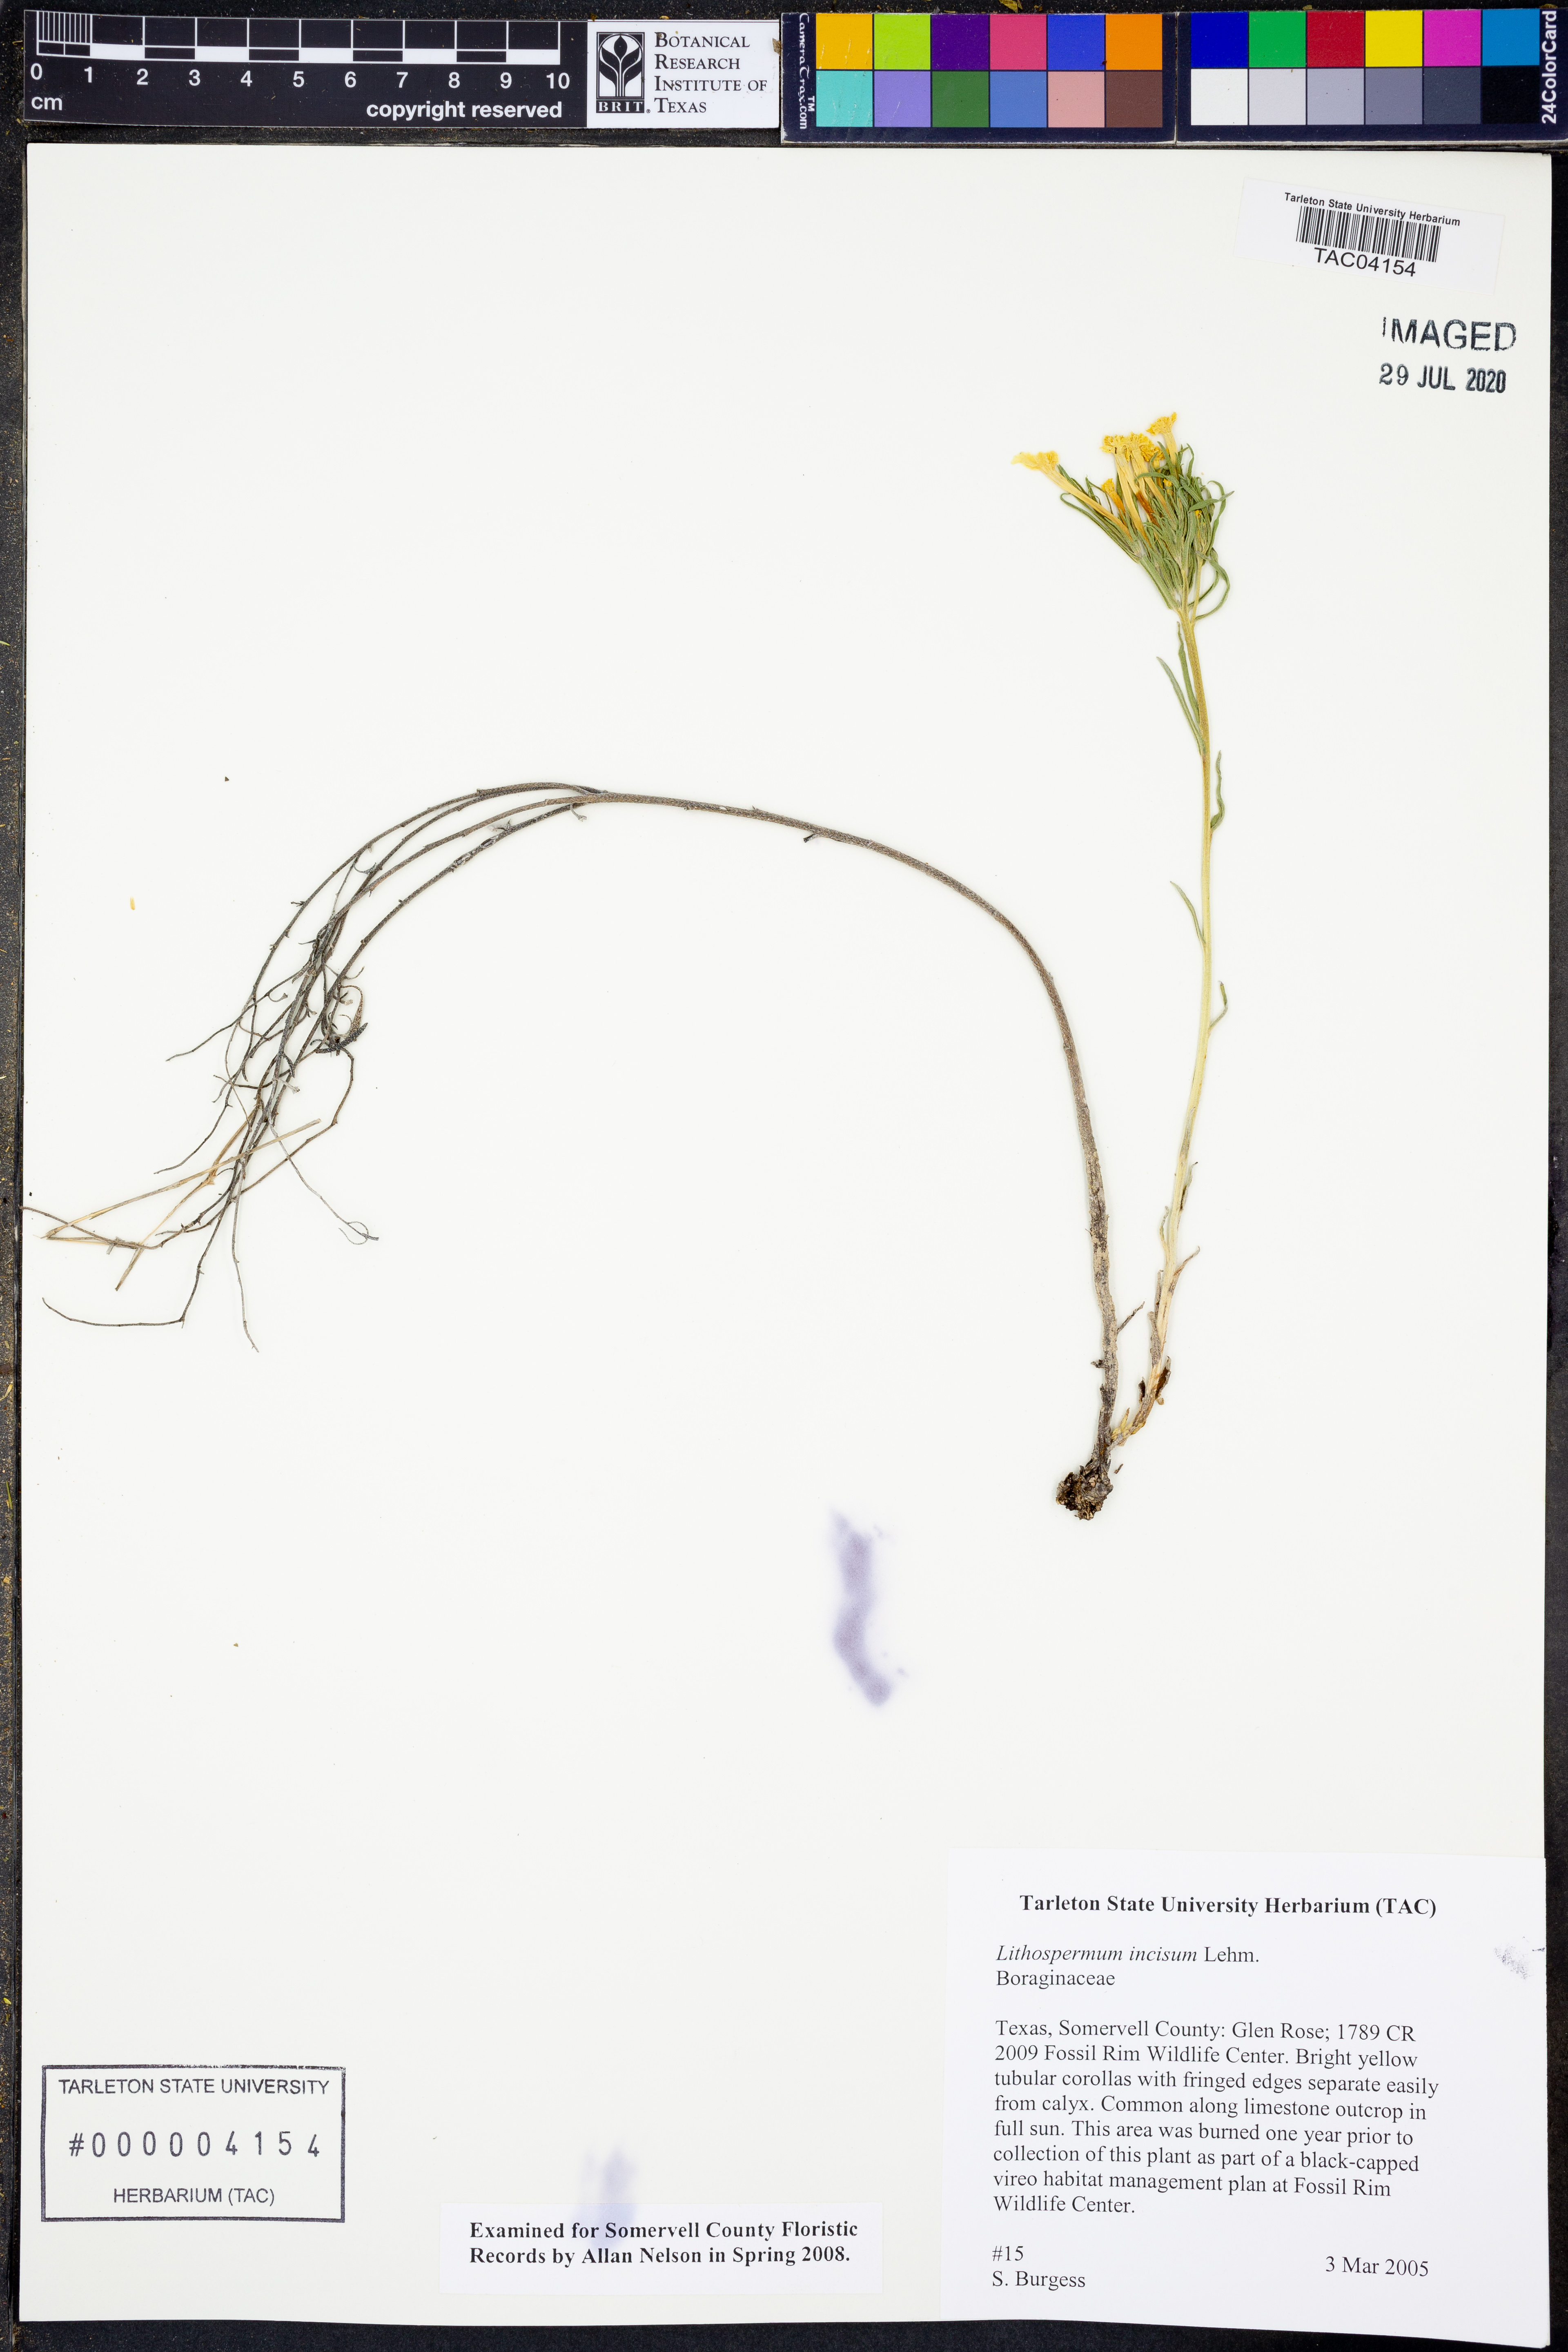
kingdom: Plantae
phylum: Tracheophyta
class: Magnoliopsida
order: Boraginales
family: Boraginaceae
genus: Lithospermum
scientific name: Lithospermum incisum
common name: Fringed gromwell
